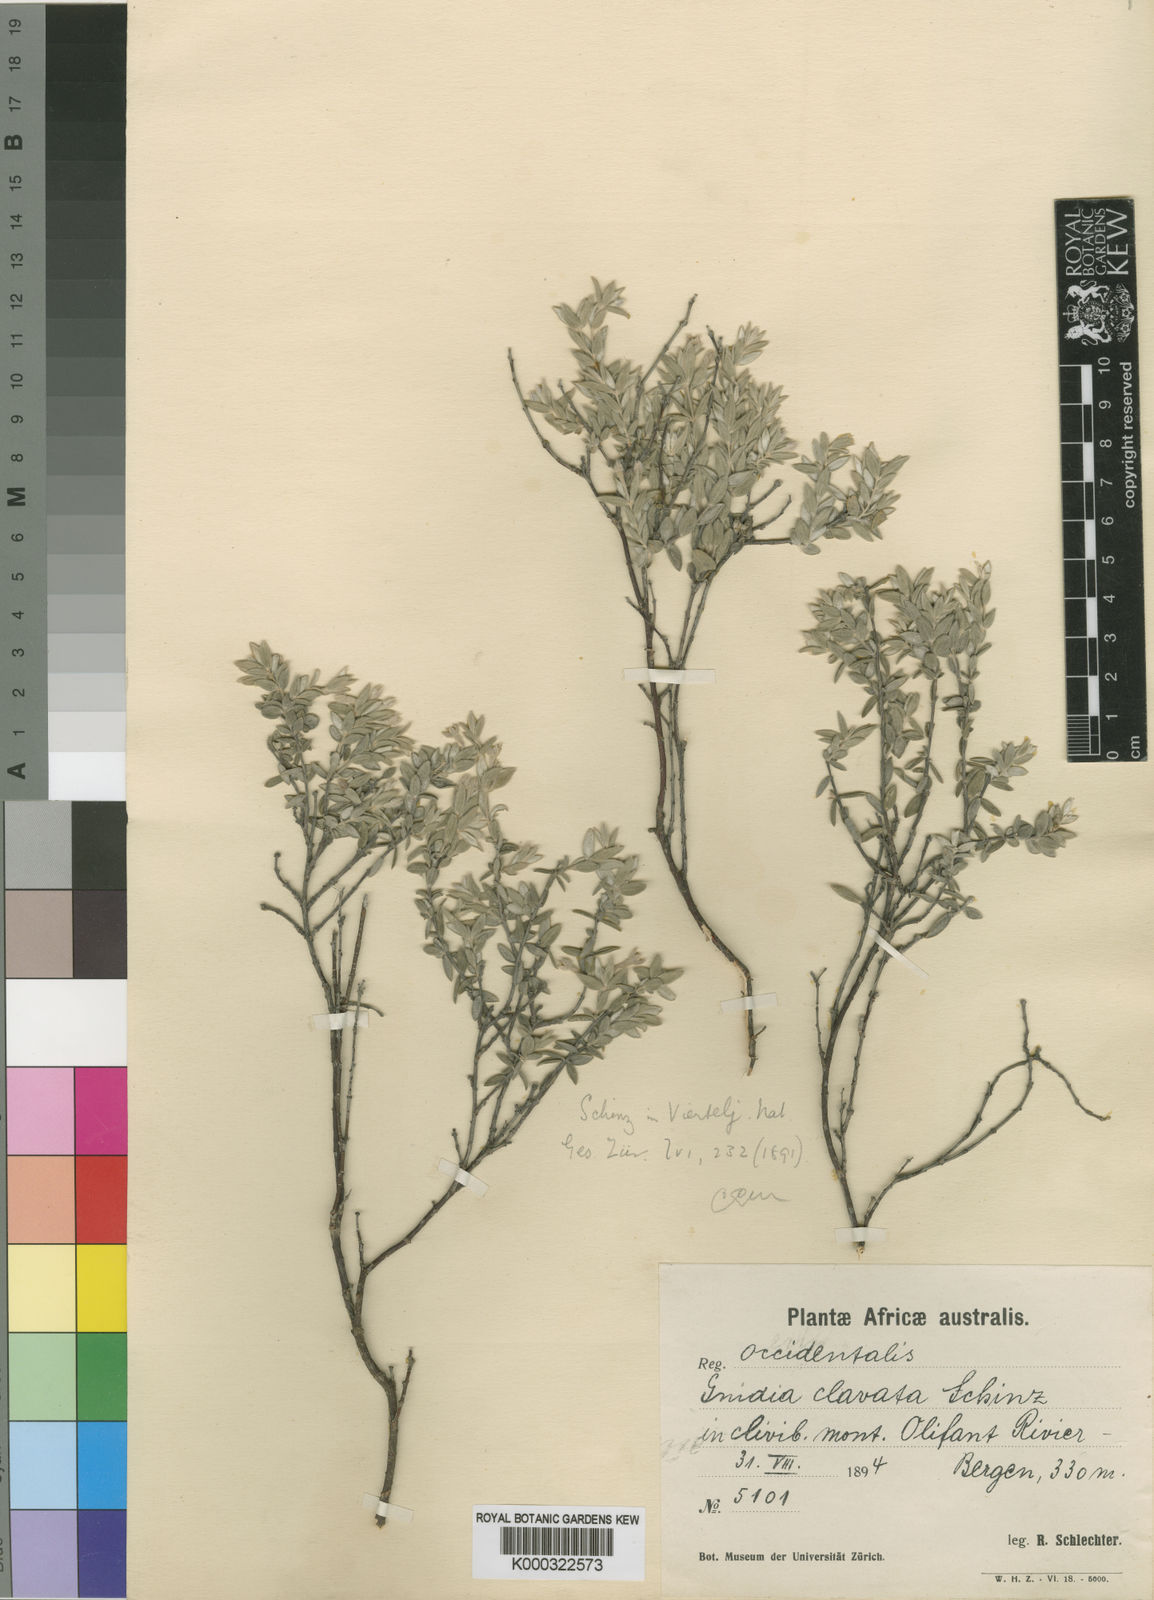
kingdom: Plantae
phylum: Tracheophyta
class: Magnoliopsida
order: Malvales
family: Thymelaeaceae
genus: Gnidia
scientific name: Gnidia clavata
